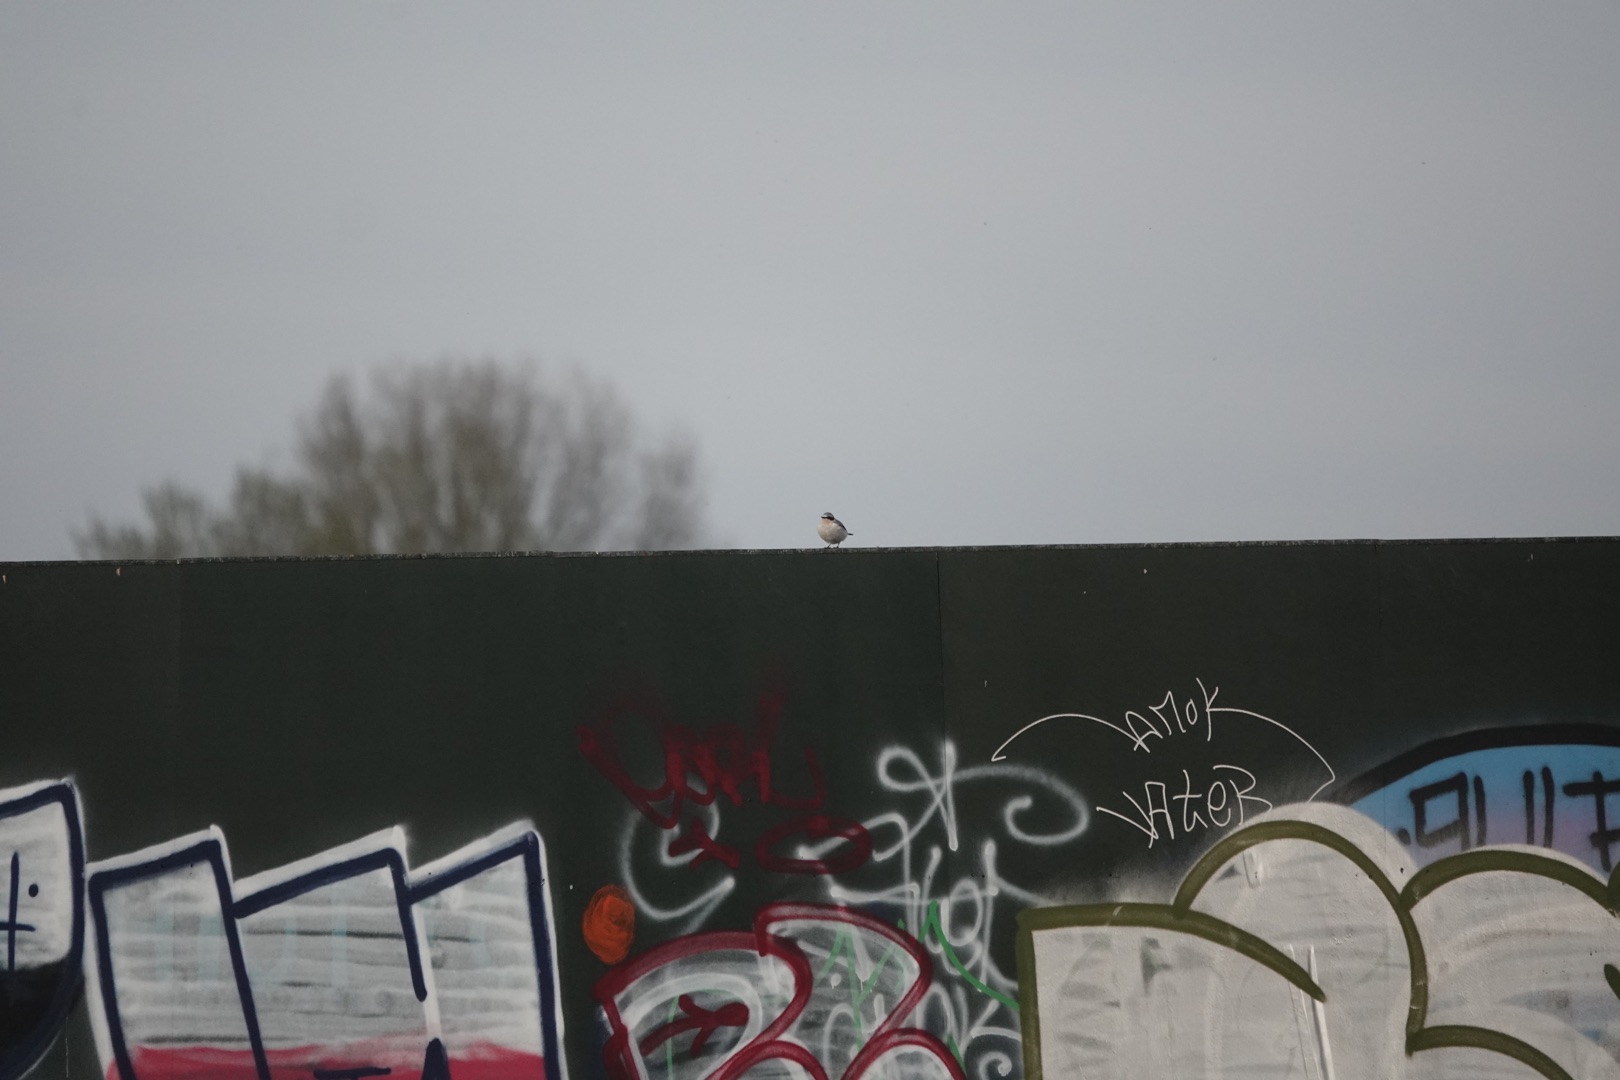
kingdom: Animalia
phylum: Chordata
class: Aves
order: Passeriformes
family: Muscicapidae
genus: Oenanthe
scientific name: Oenanthe oenanthe
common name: Stenpikker
